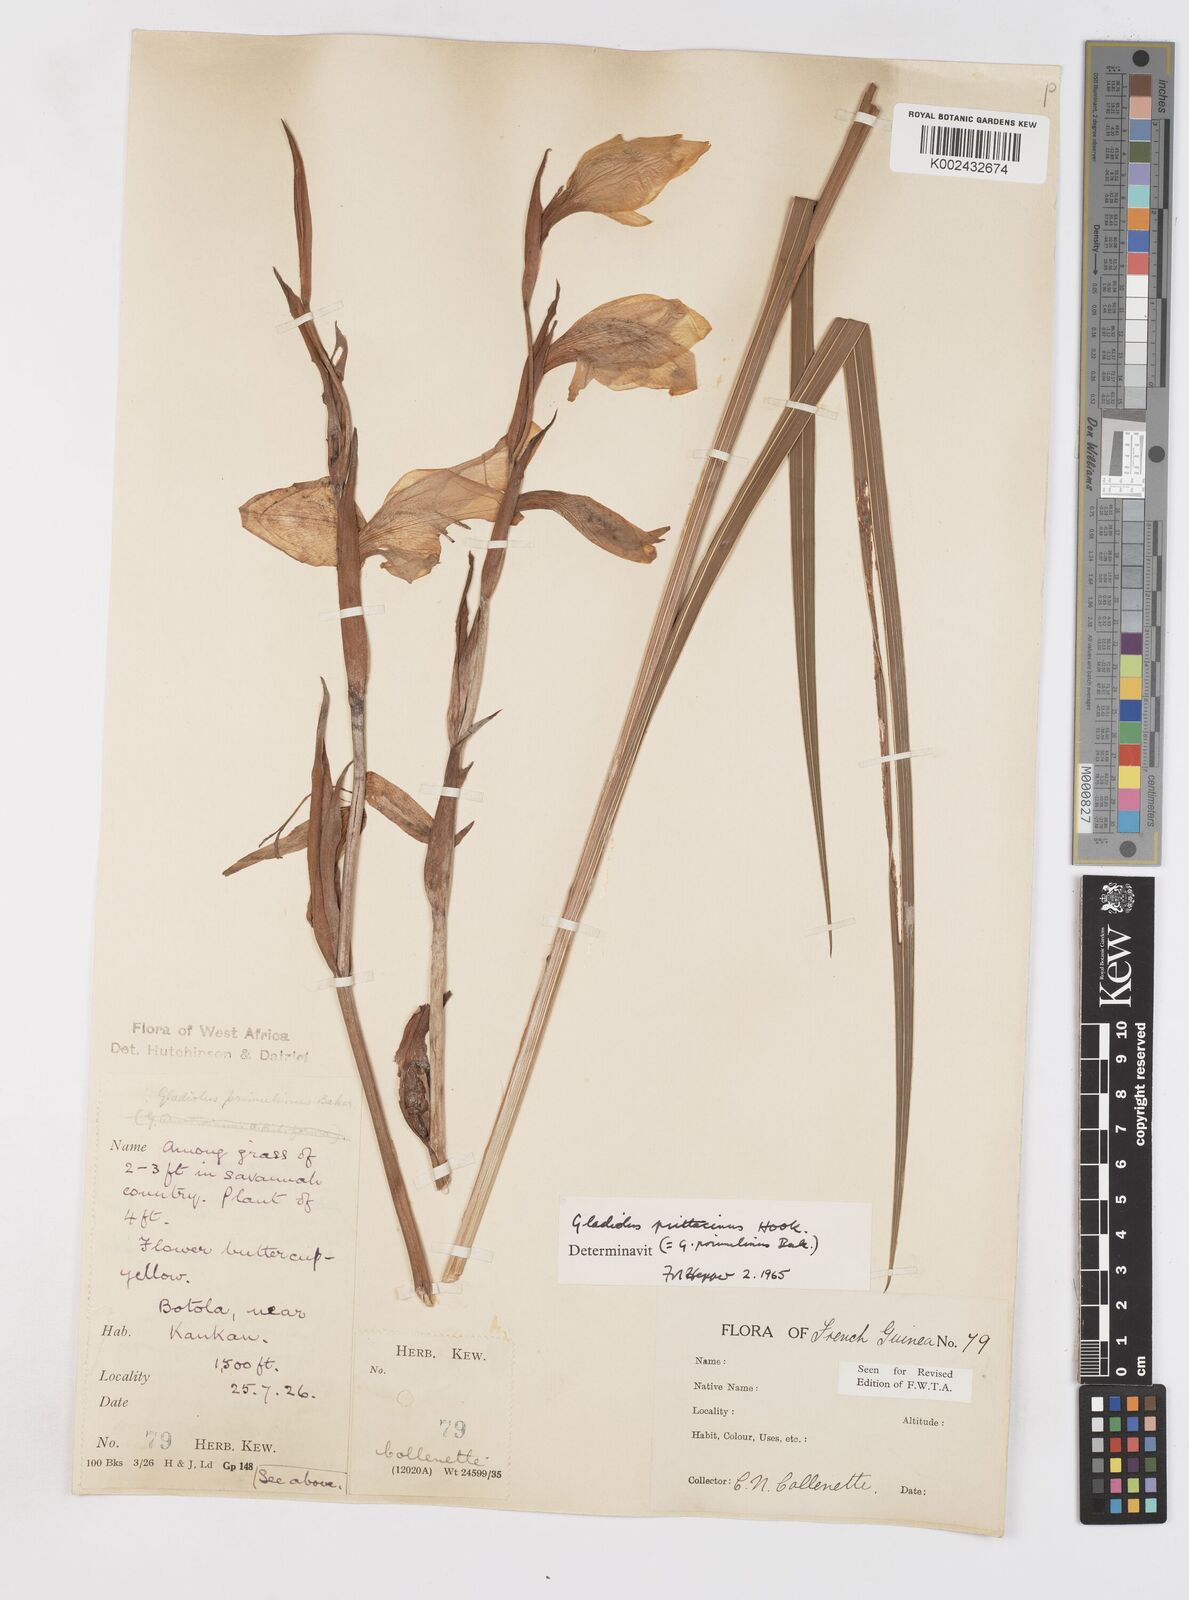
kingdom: Plantae
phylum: Tracheophyta
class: Liliopsida
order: Asparagales
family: Iridaceae
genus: Gladiolus
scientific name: Gladiolus dalenii
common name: Cornflag
